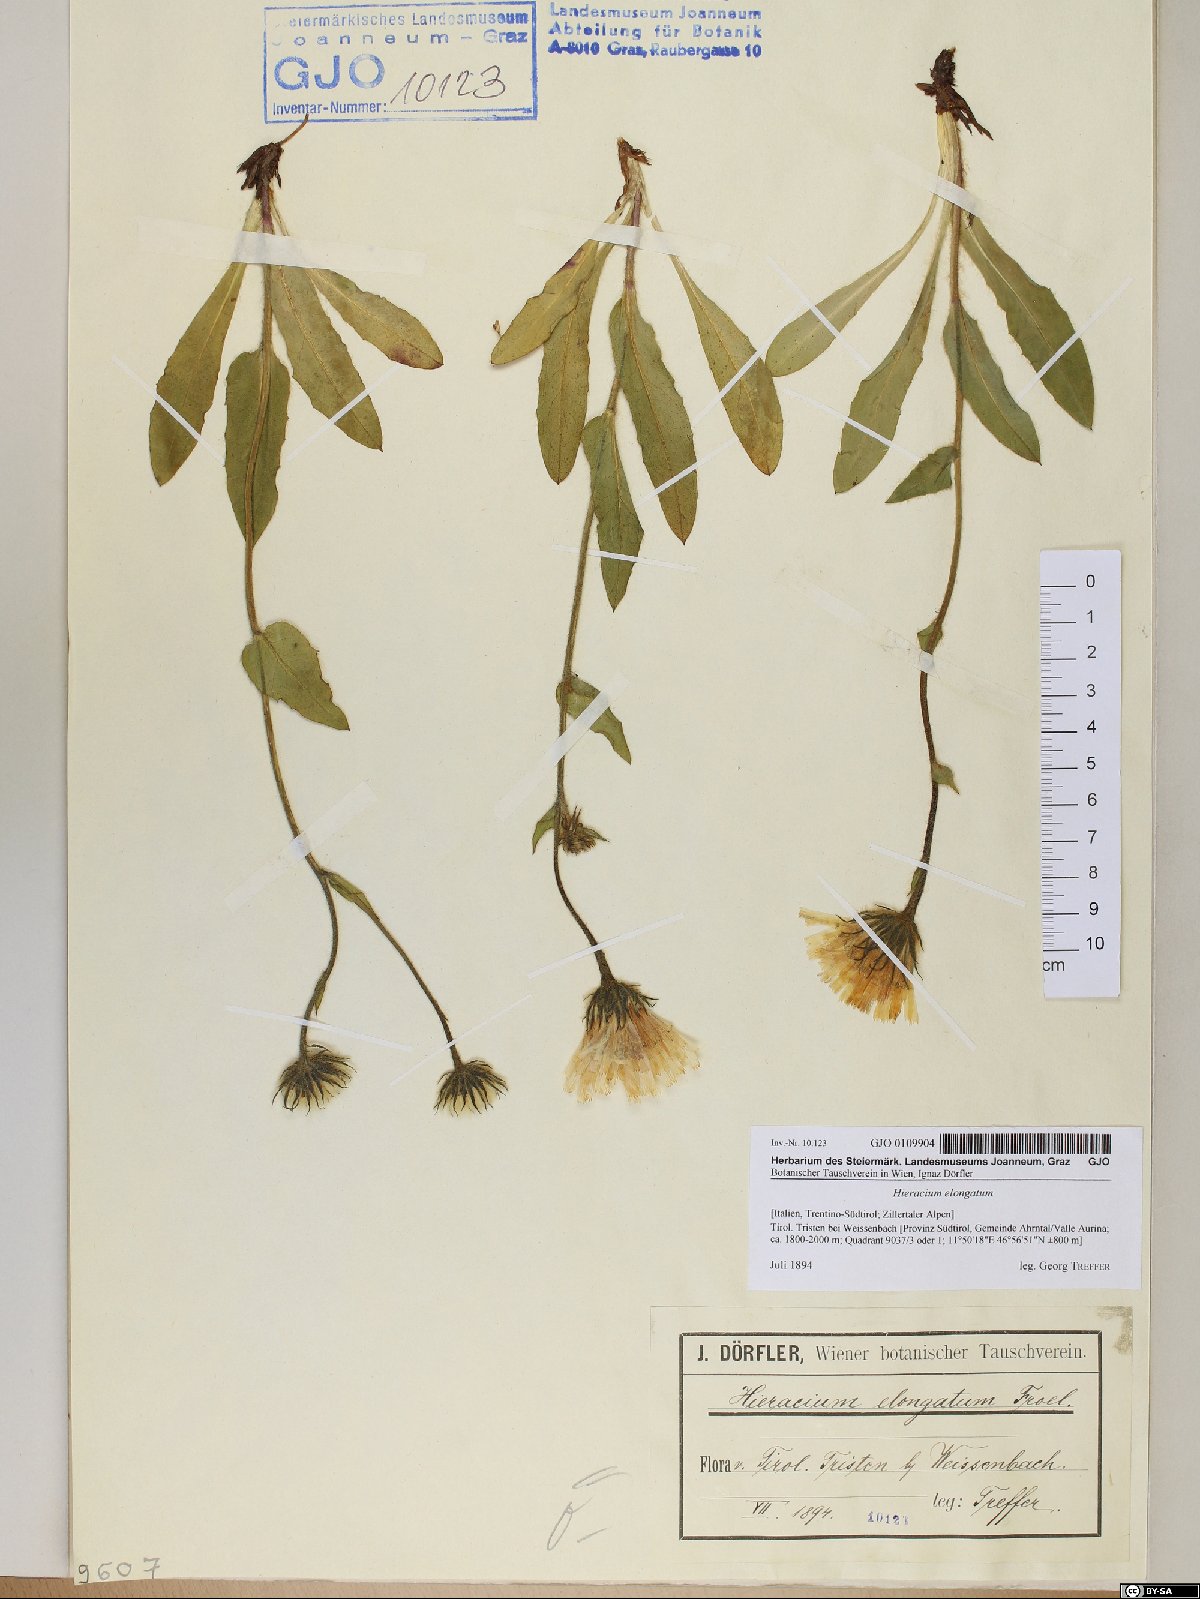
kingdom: Plantae
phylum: Tracheophyta
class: Magnoliopsida
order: Asterales
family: Asteraceae
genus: Hieracium
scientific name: Hieracium valdepilosum
